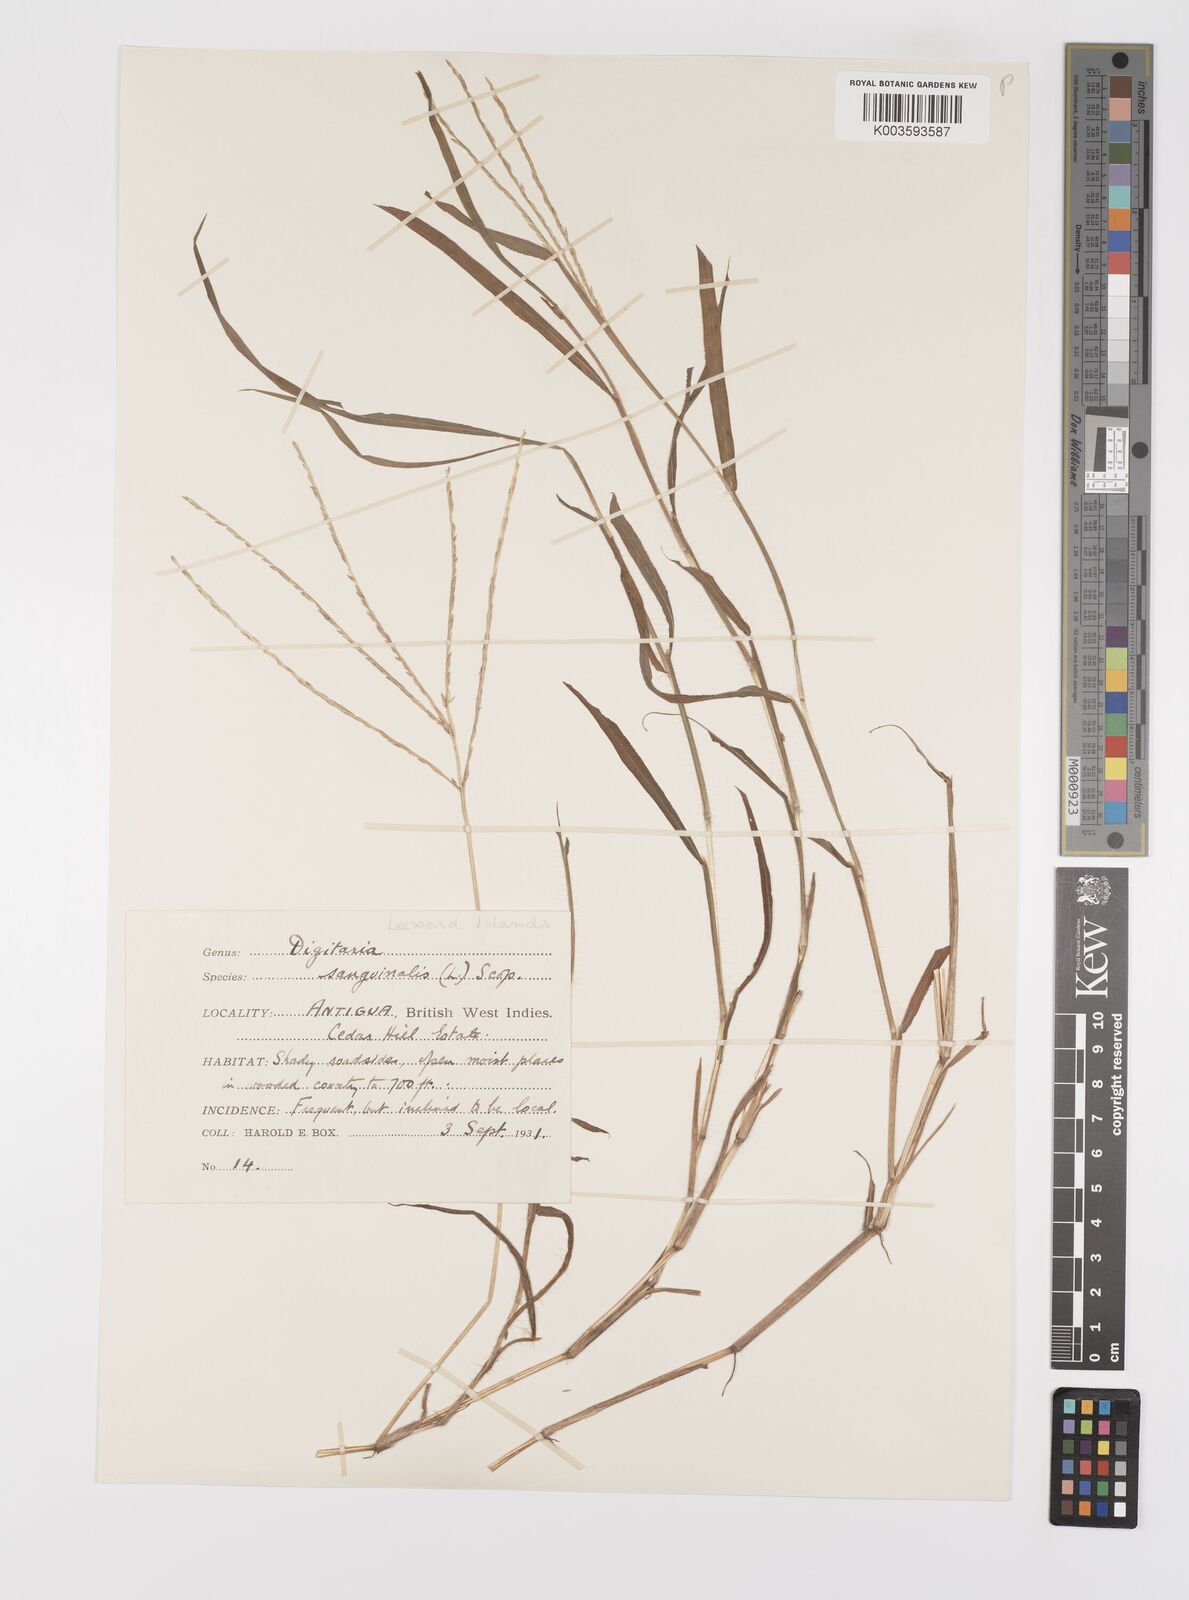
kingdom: Plantae
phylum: Tracheophyta
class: Liliopsida
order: Poales
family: Poaceae
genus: Digitaria
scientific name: Digitaria ciliaris
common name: Tropical finger-grass
